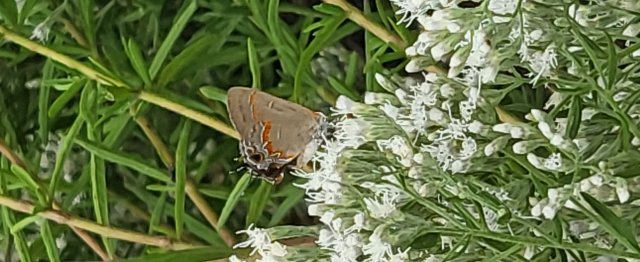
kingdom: Animalia
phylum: Arthropoda
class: Insecta
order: Lepidoptera
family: Lycaenidae
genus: Calycopis
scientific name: Calycopis cecrops
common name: Red-banded Hairstreak
